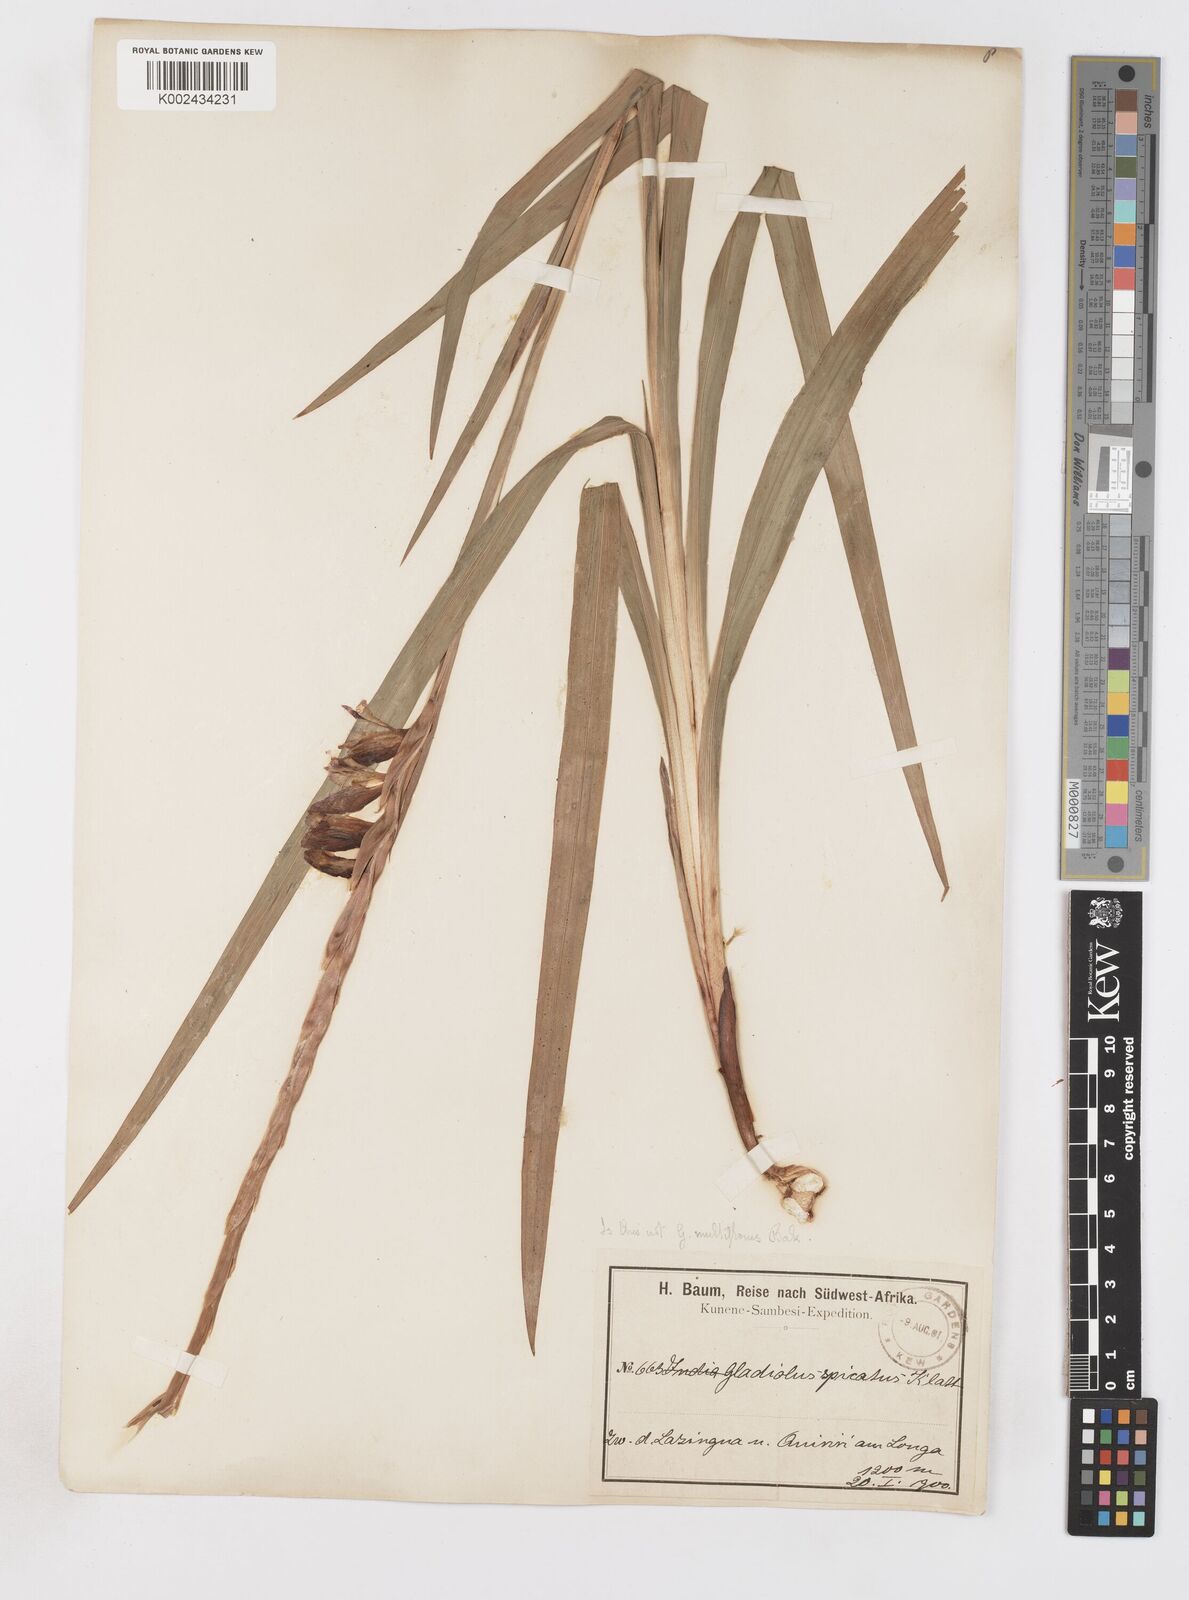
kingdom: Plantae
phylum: Tracheophyta
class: Liliopsida
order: Asparagales
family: Iridaceae
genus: Gladiolus
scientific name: Gladiolus gregarius
